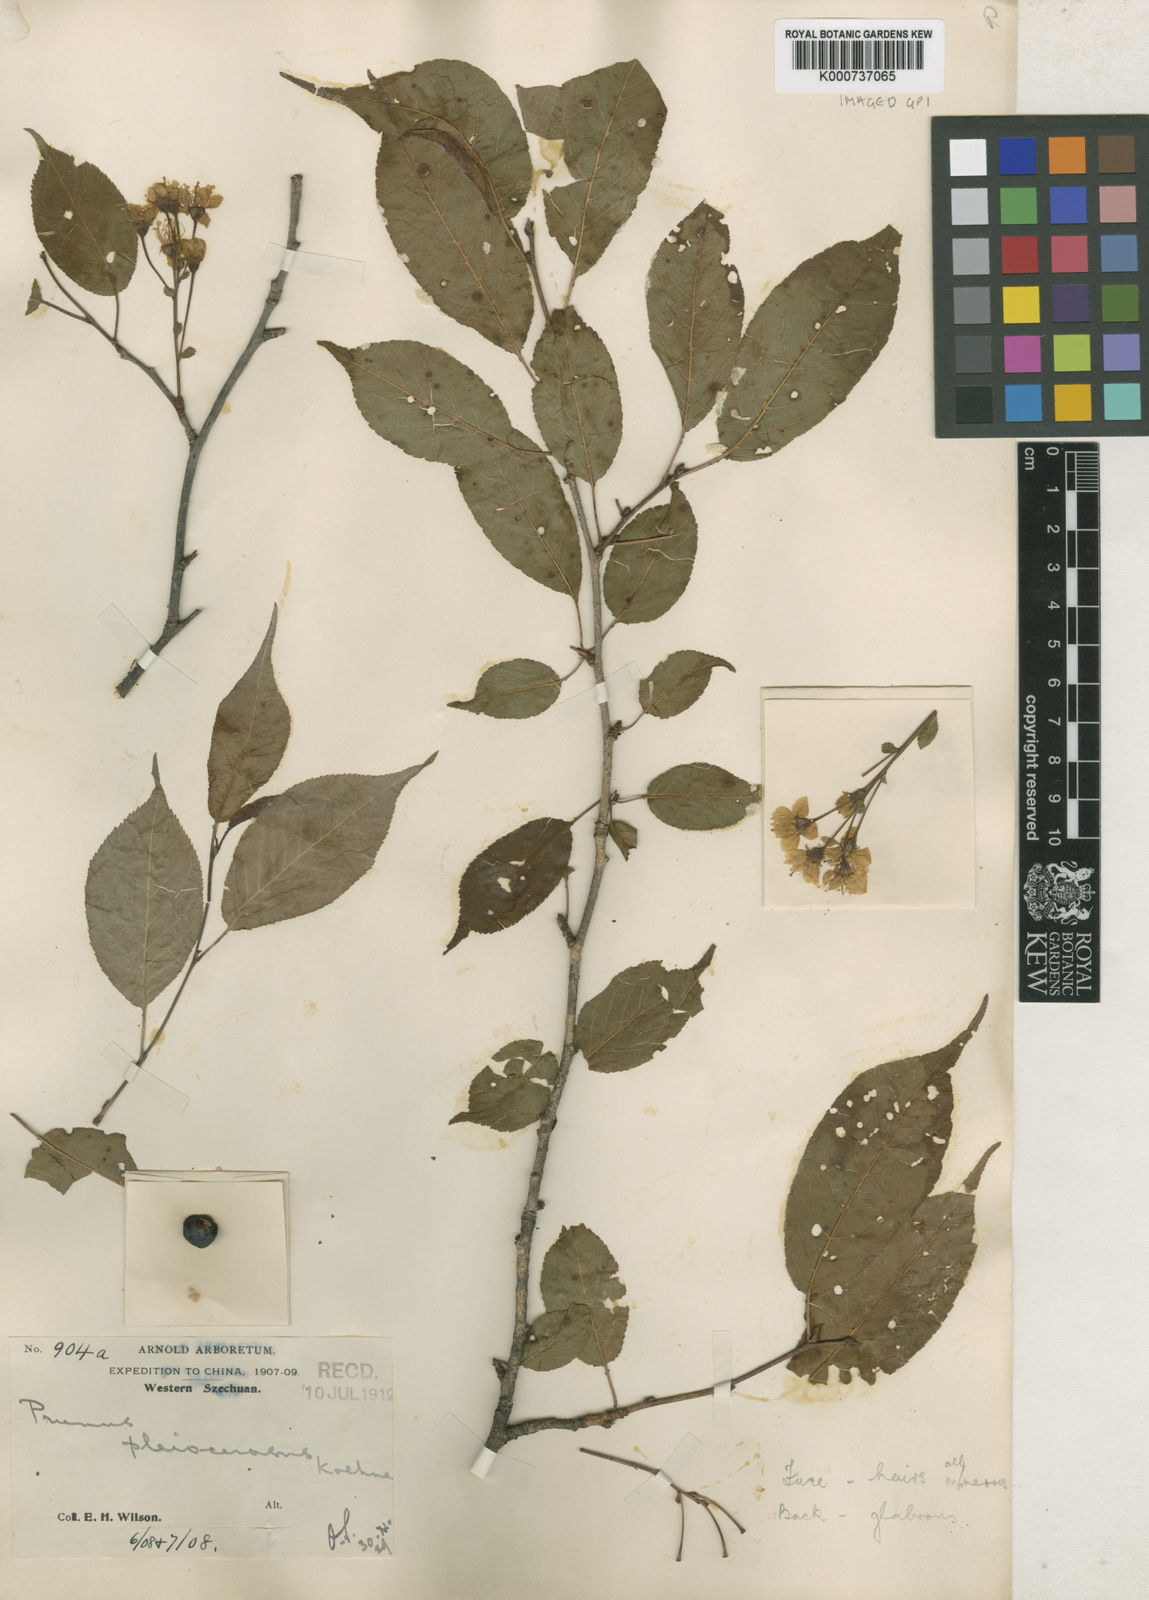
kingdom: Plantae
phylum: Tracheophyta
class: Magnoliopsida
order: Rosales
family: Rosaceae
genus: Prunus
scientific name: Prunus pleiocerasus
